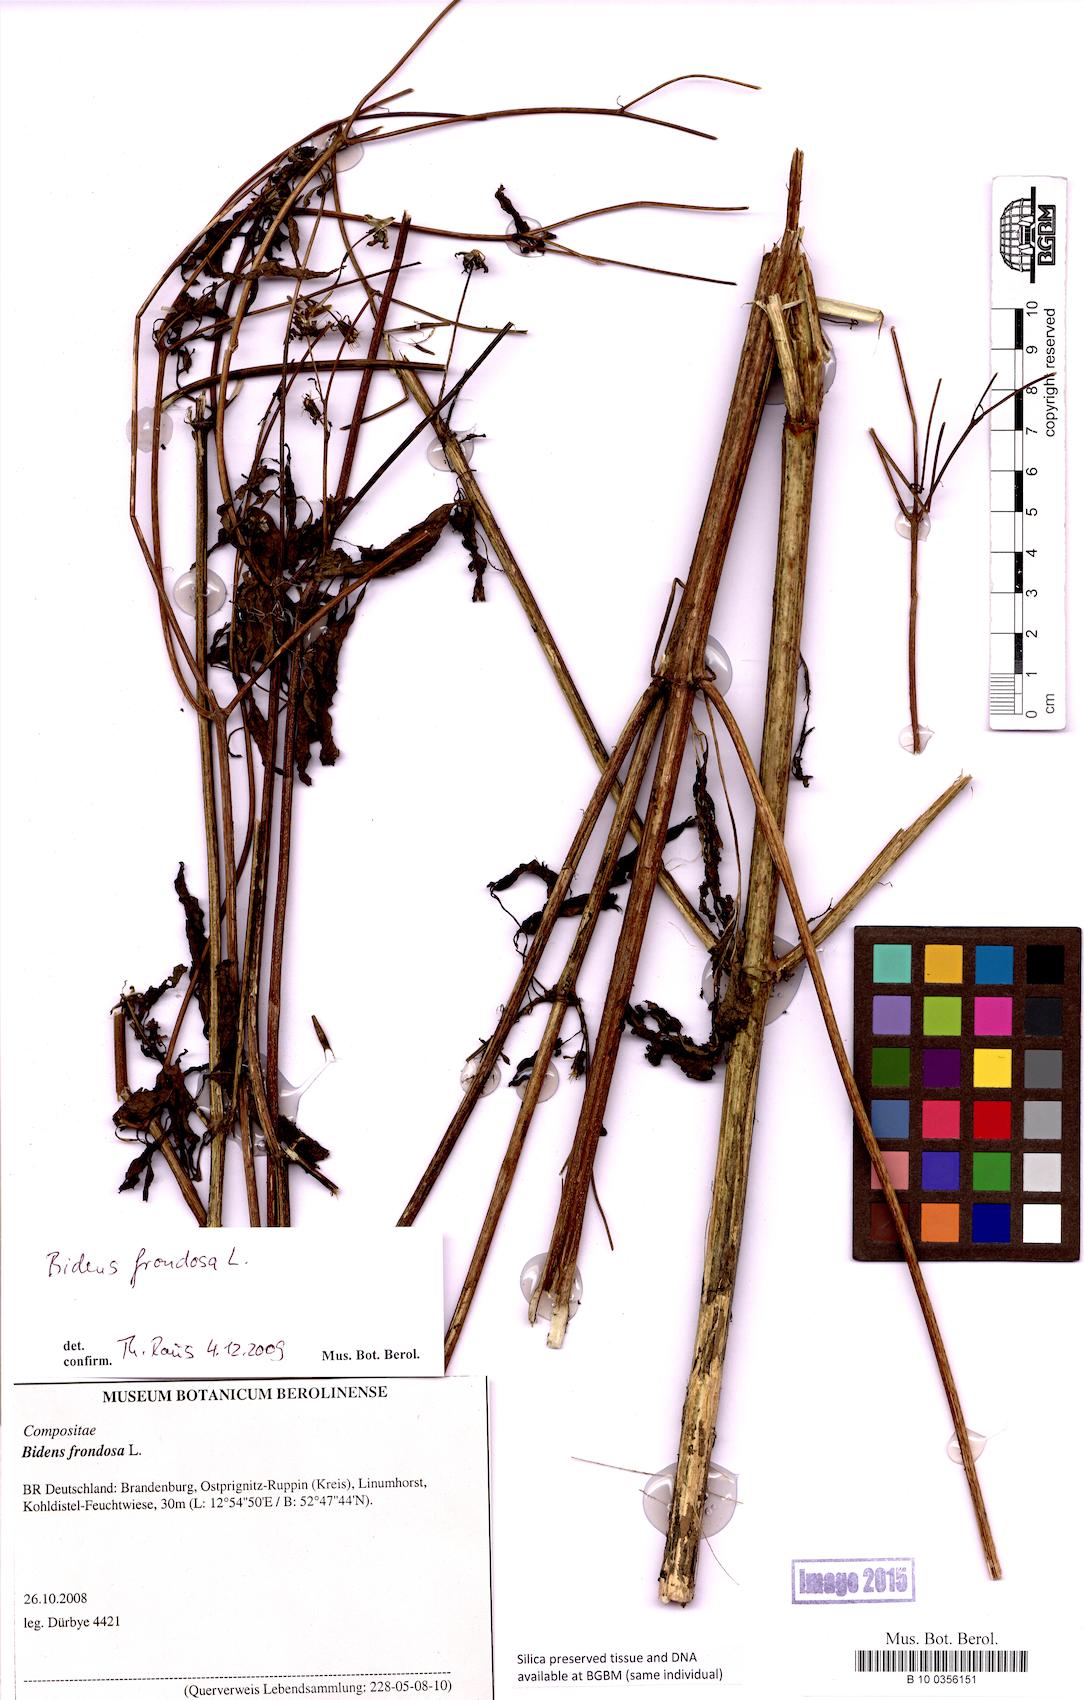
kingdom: Plantae
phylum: Tracheophyta
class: Magnoliopsida
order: Asterales
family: Asteraceae
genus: Bidens
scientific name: Bidens frondosa
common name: Beggarticks
